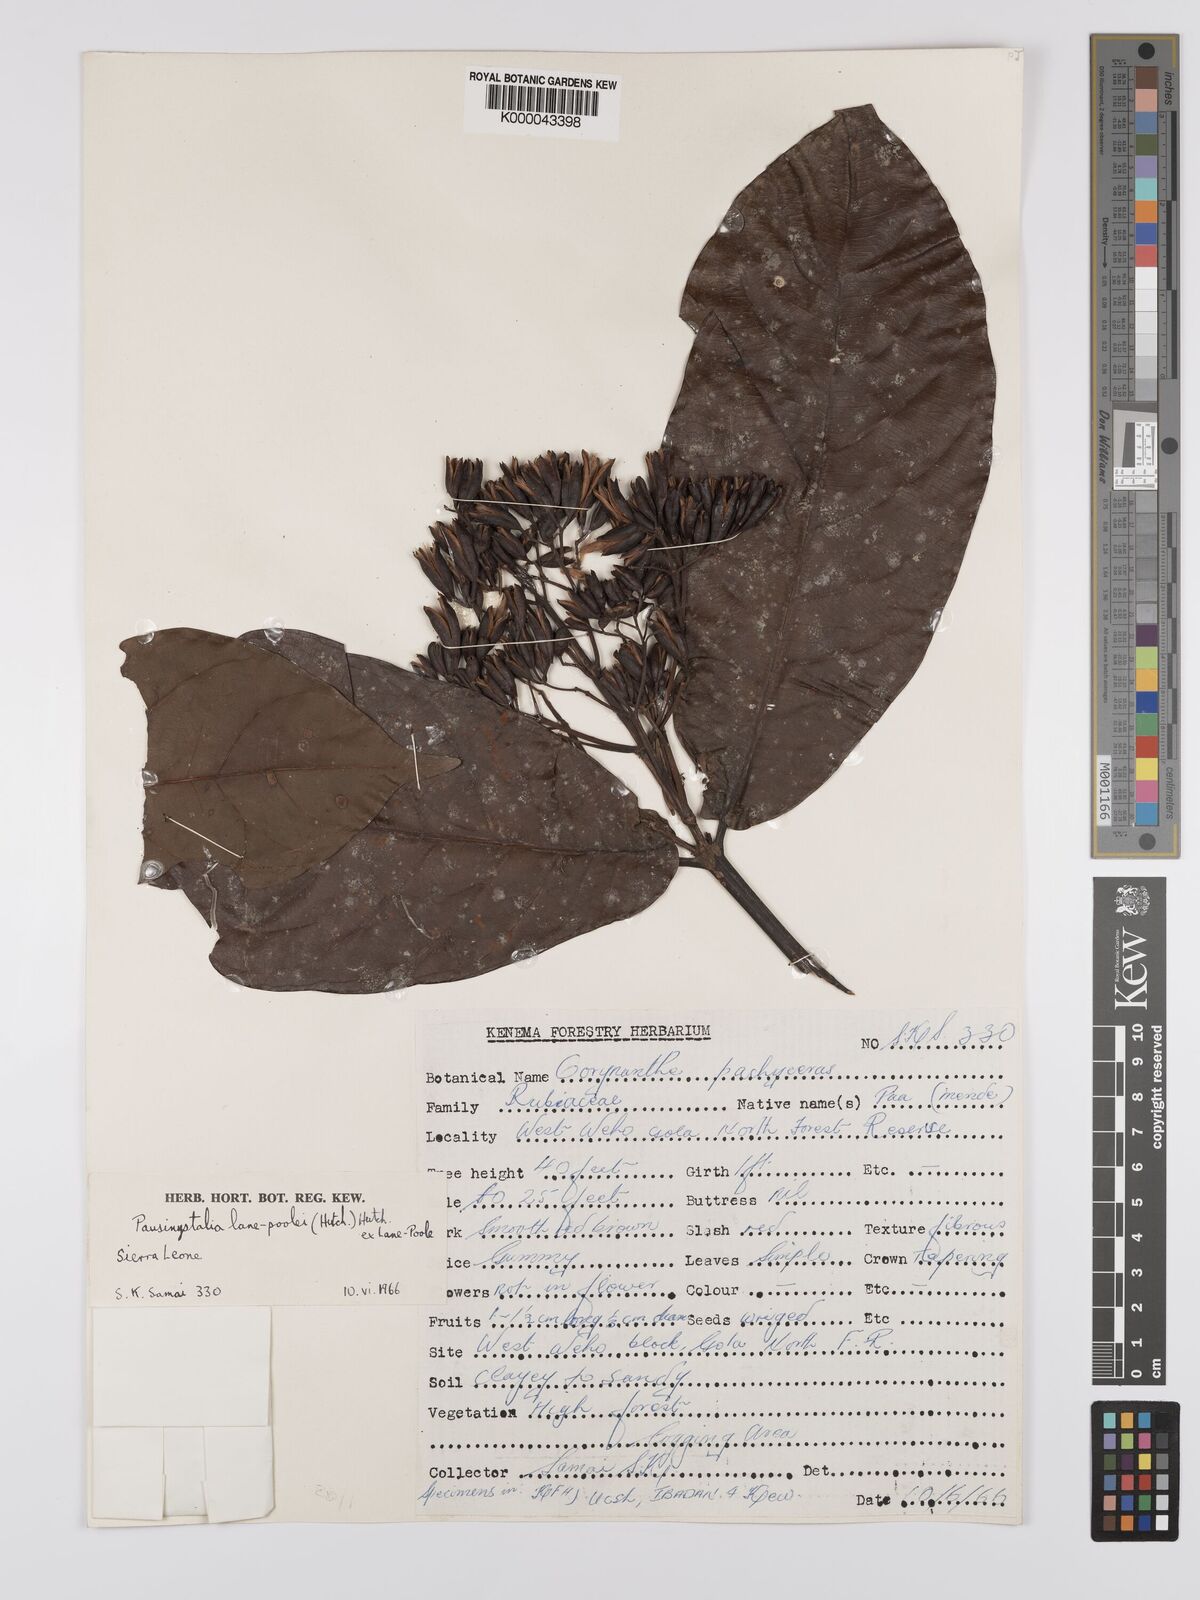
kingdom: Plantae
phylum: Tracheophyta
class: Magnoliopsida
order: Gentianales
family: Rubiaceae
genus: Corynanthe
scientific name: Corynanthe lane-poolei
